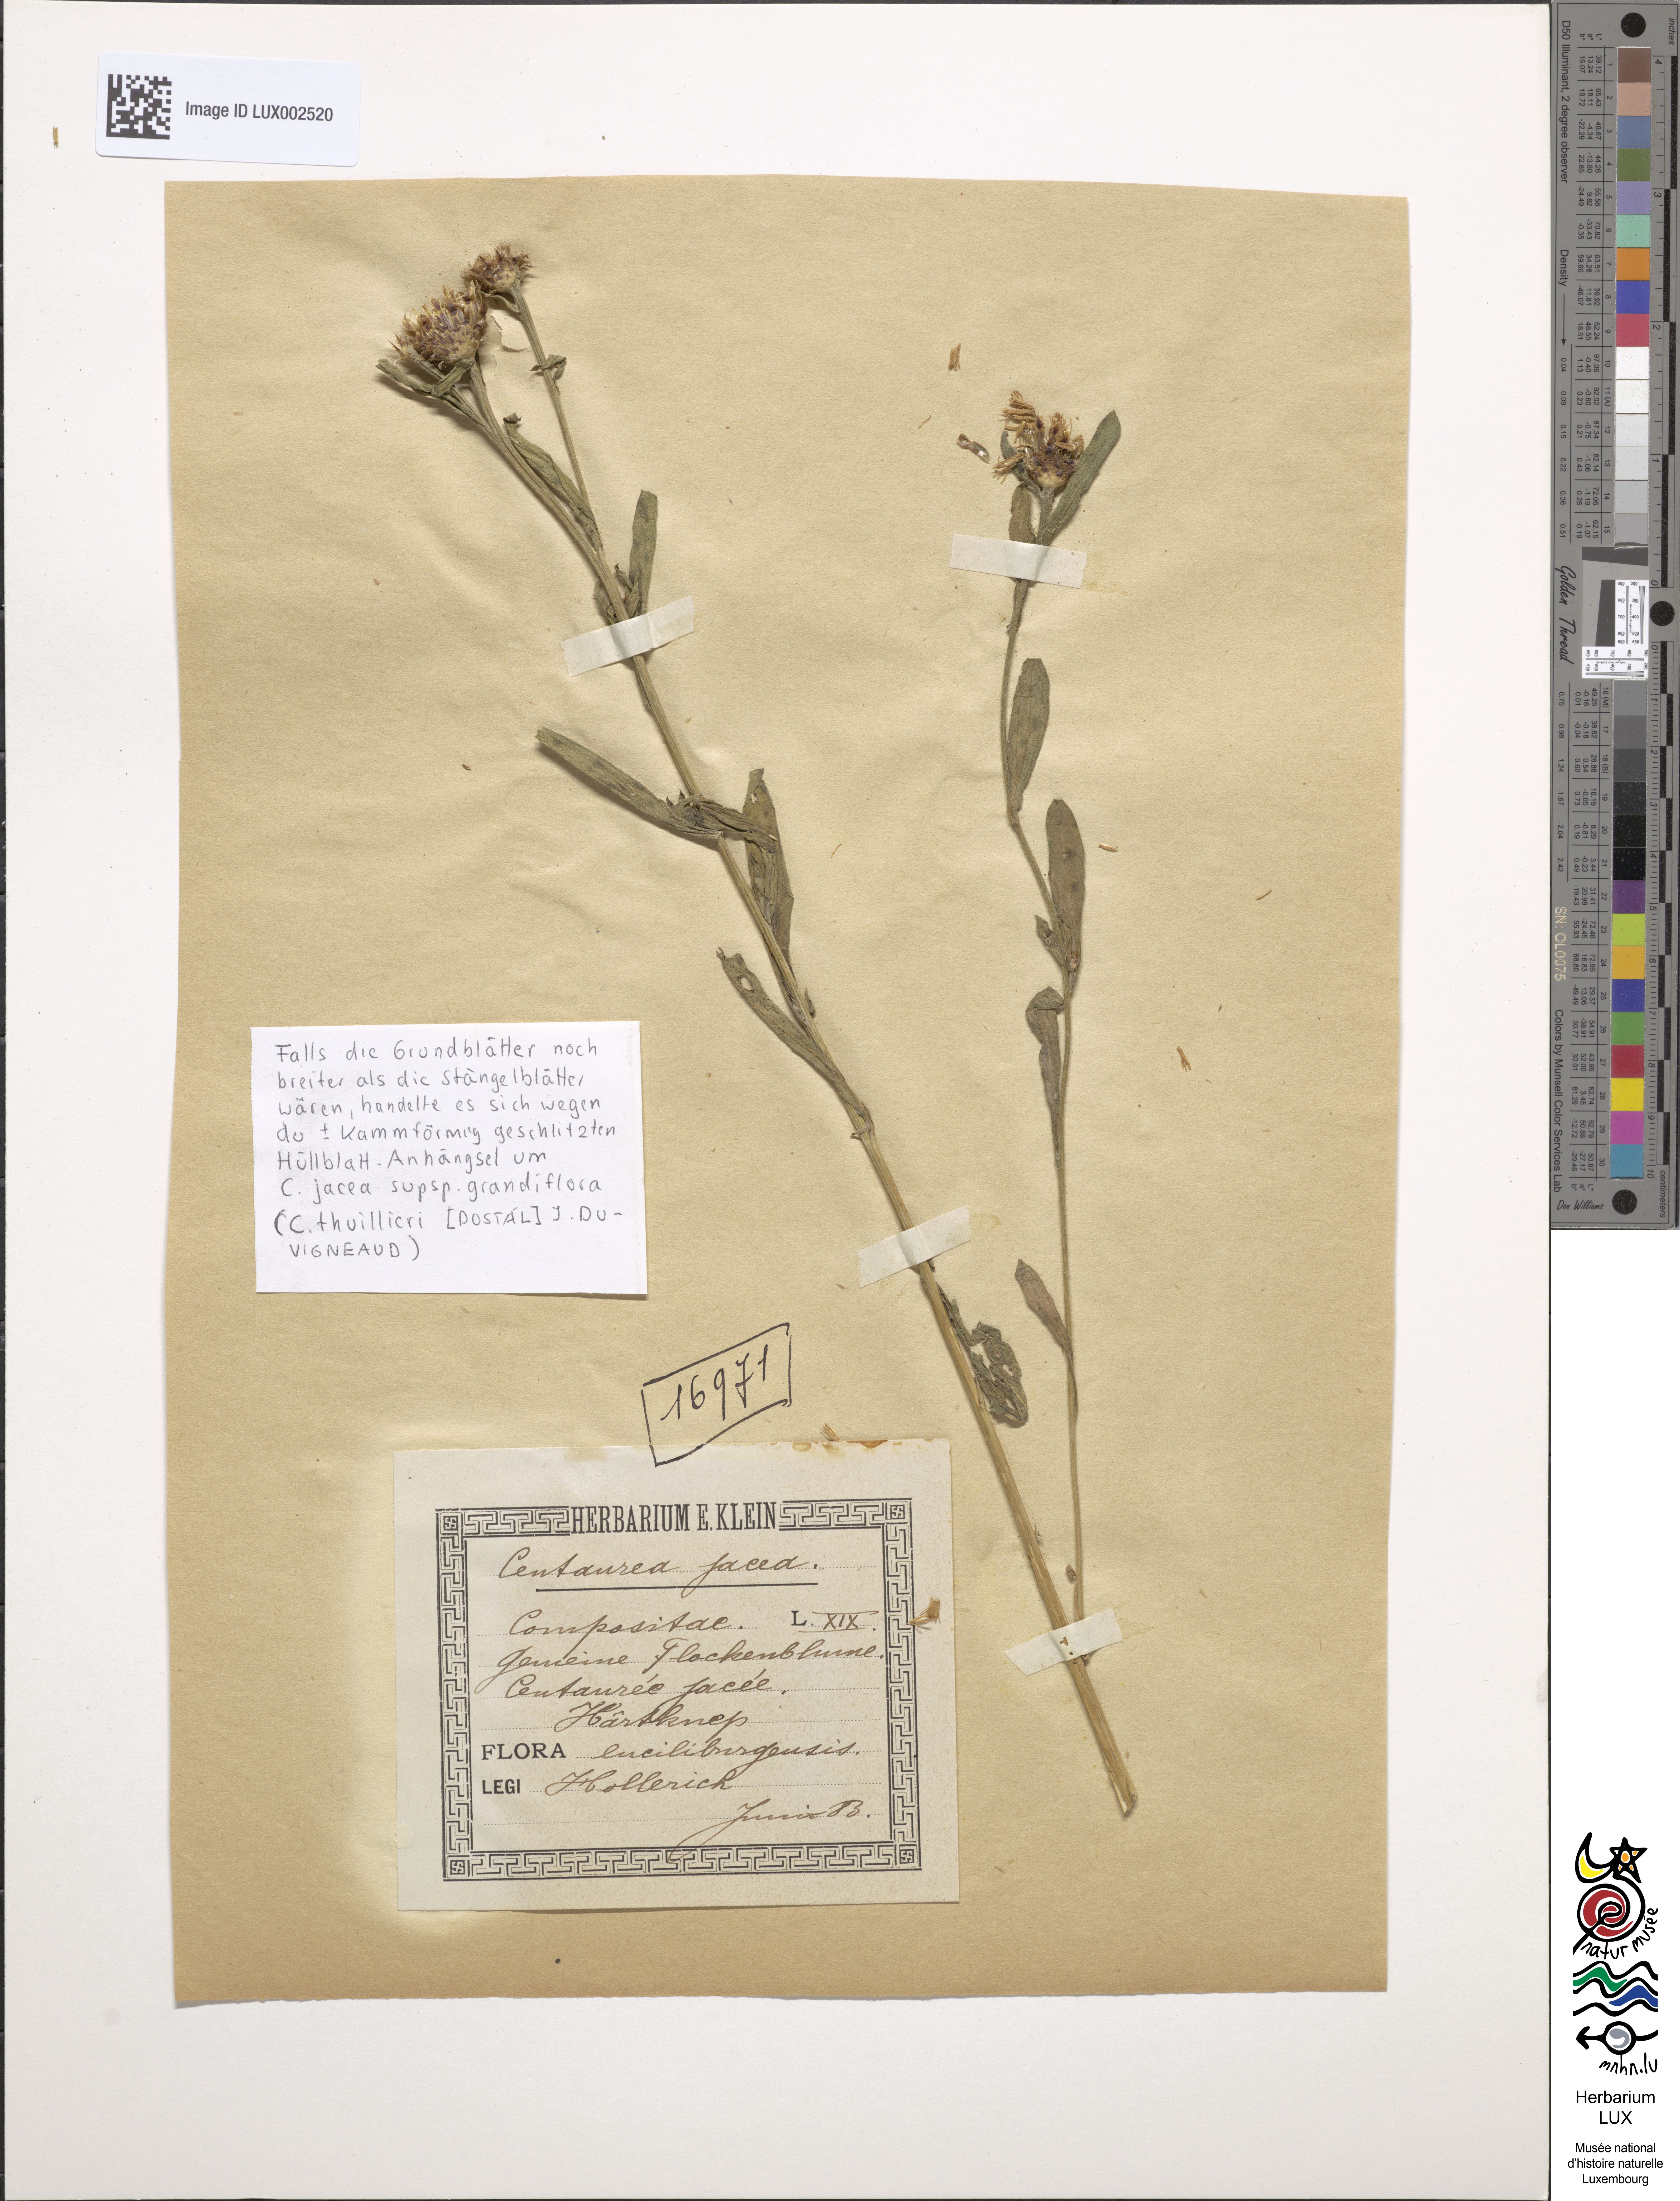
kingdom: Plantae
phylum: Tracheophyta
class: Magnoliopsida
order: Asterales
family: Asteraceae
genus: Centaurea
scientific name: Centaurea jacea
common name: Brown knapweed
